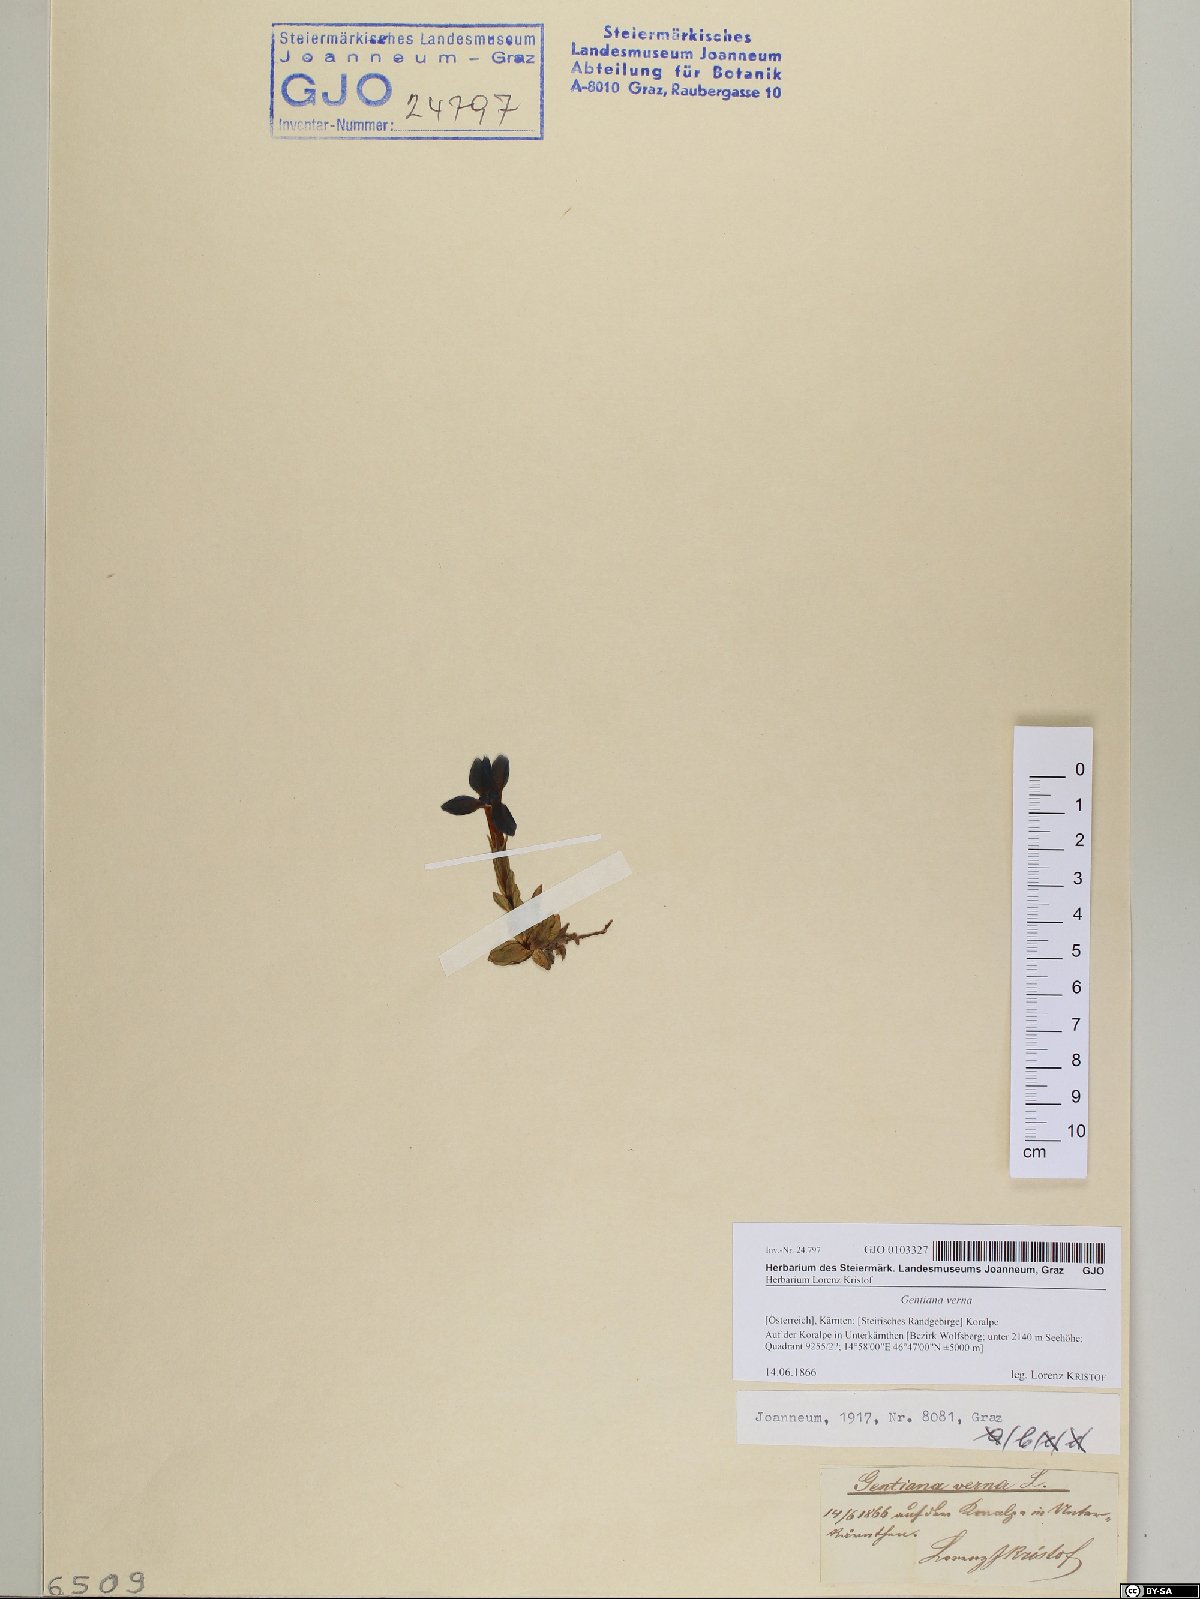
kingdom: Plantae
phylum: Tracheophyta
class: Magnoliopsida
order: Gentianales
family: Gentianaceae
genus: Gentiana
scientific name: Gentiana verna
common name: Spring gentian
